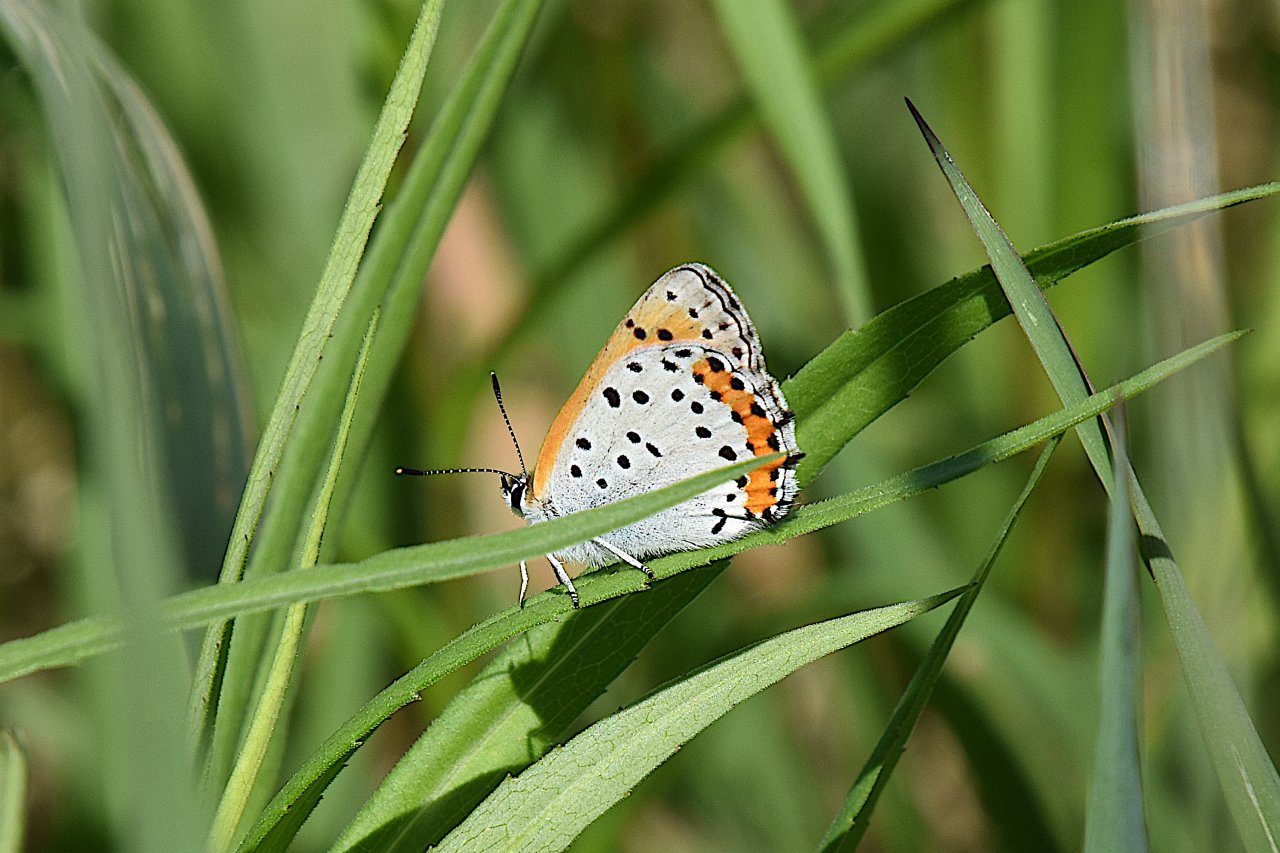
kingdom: Animalia
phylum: Arthropoda
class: Insecta
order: Lepidoptera
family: Sesiidae
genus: Sesia
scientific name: Sesia Lycaena hyllus
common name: Bronze Copper
